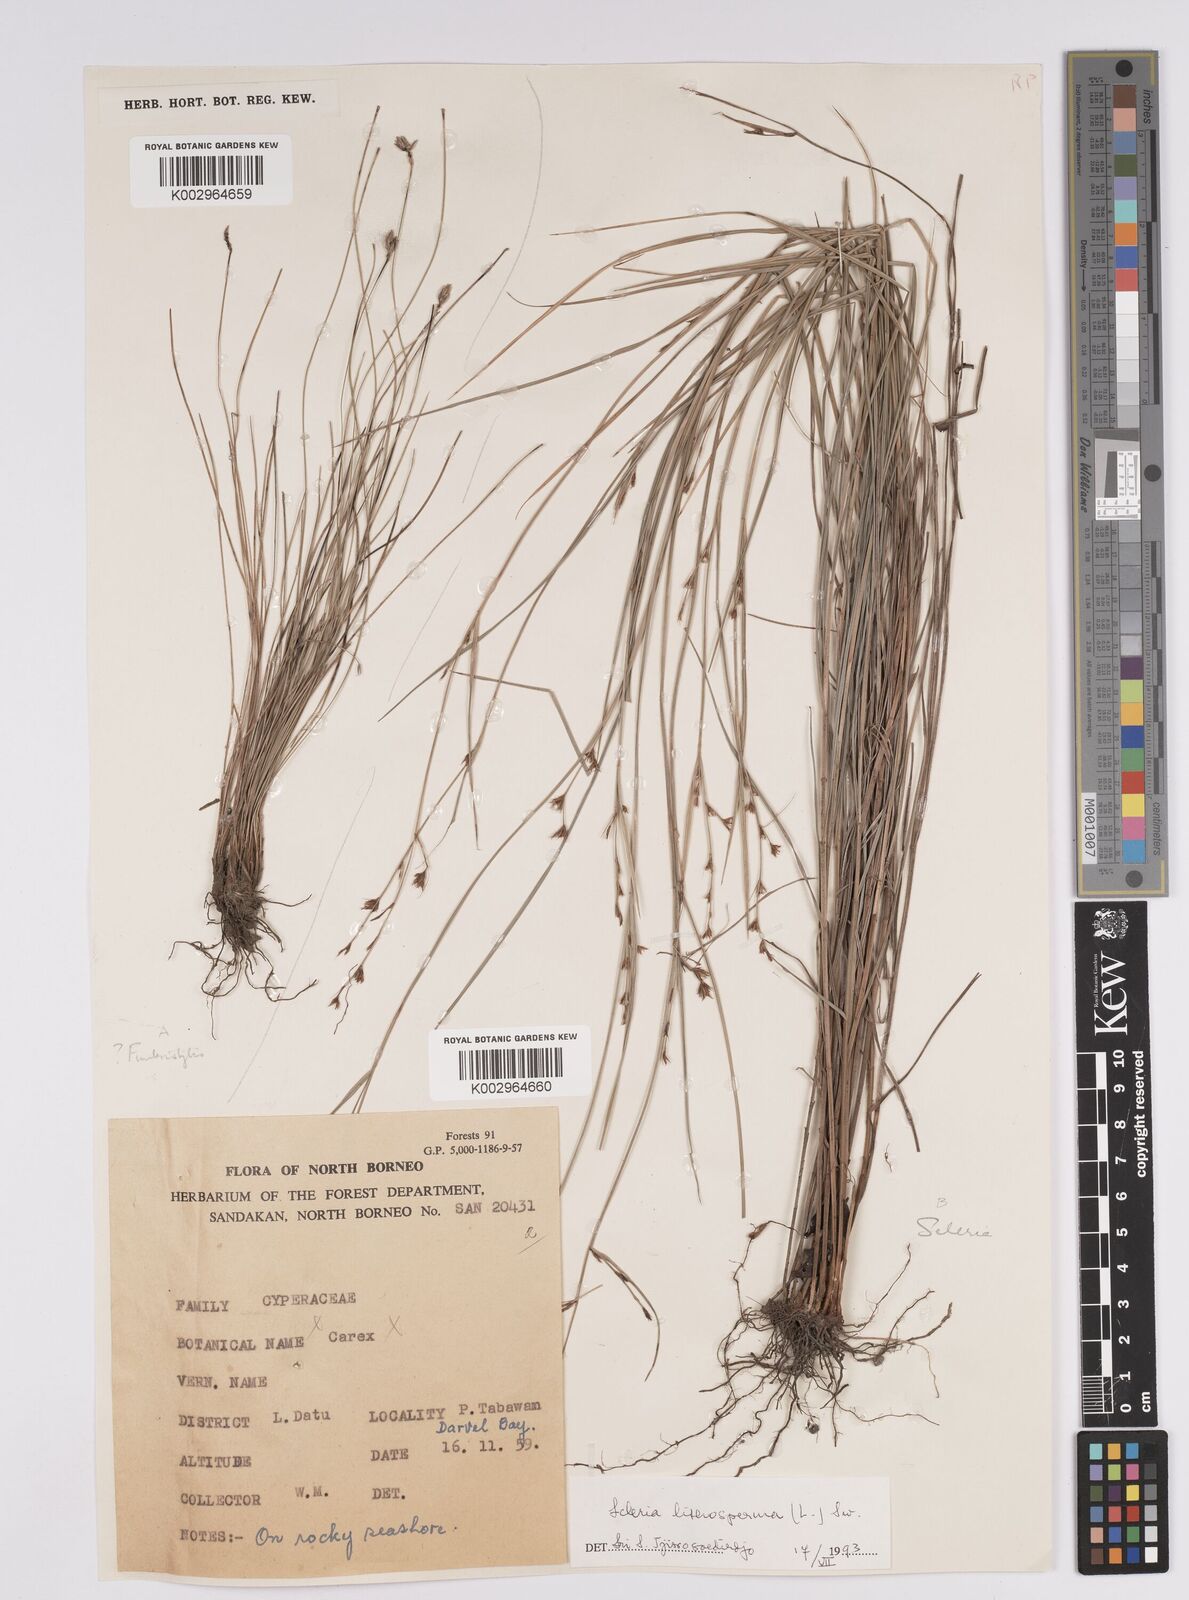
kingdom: Plantae
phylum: Tracheophyta
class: Liliopsida
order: Poales
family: Cyperaceae
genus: Scleria
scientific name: Scleria lithosperma
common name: Florida keys nut-rush
